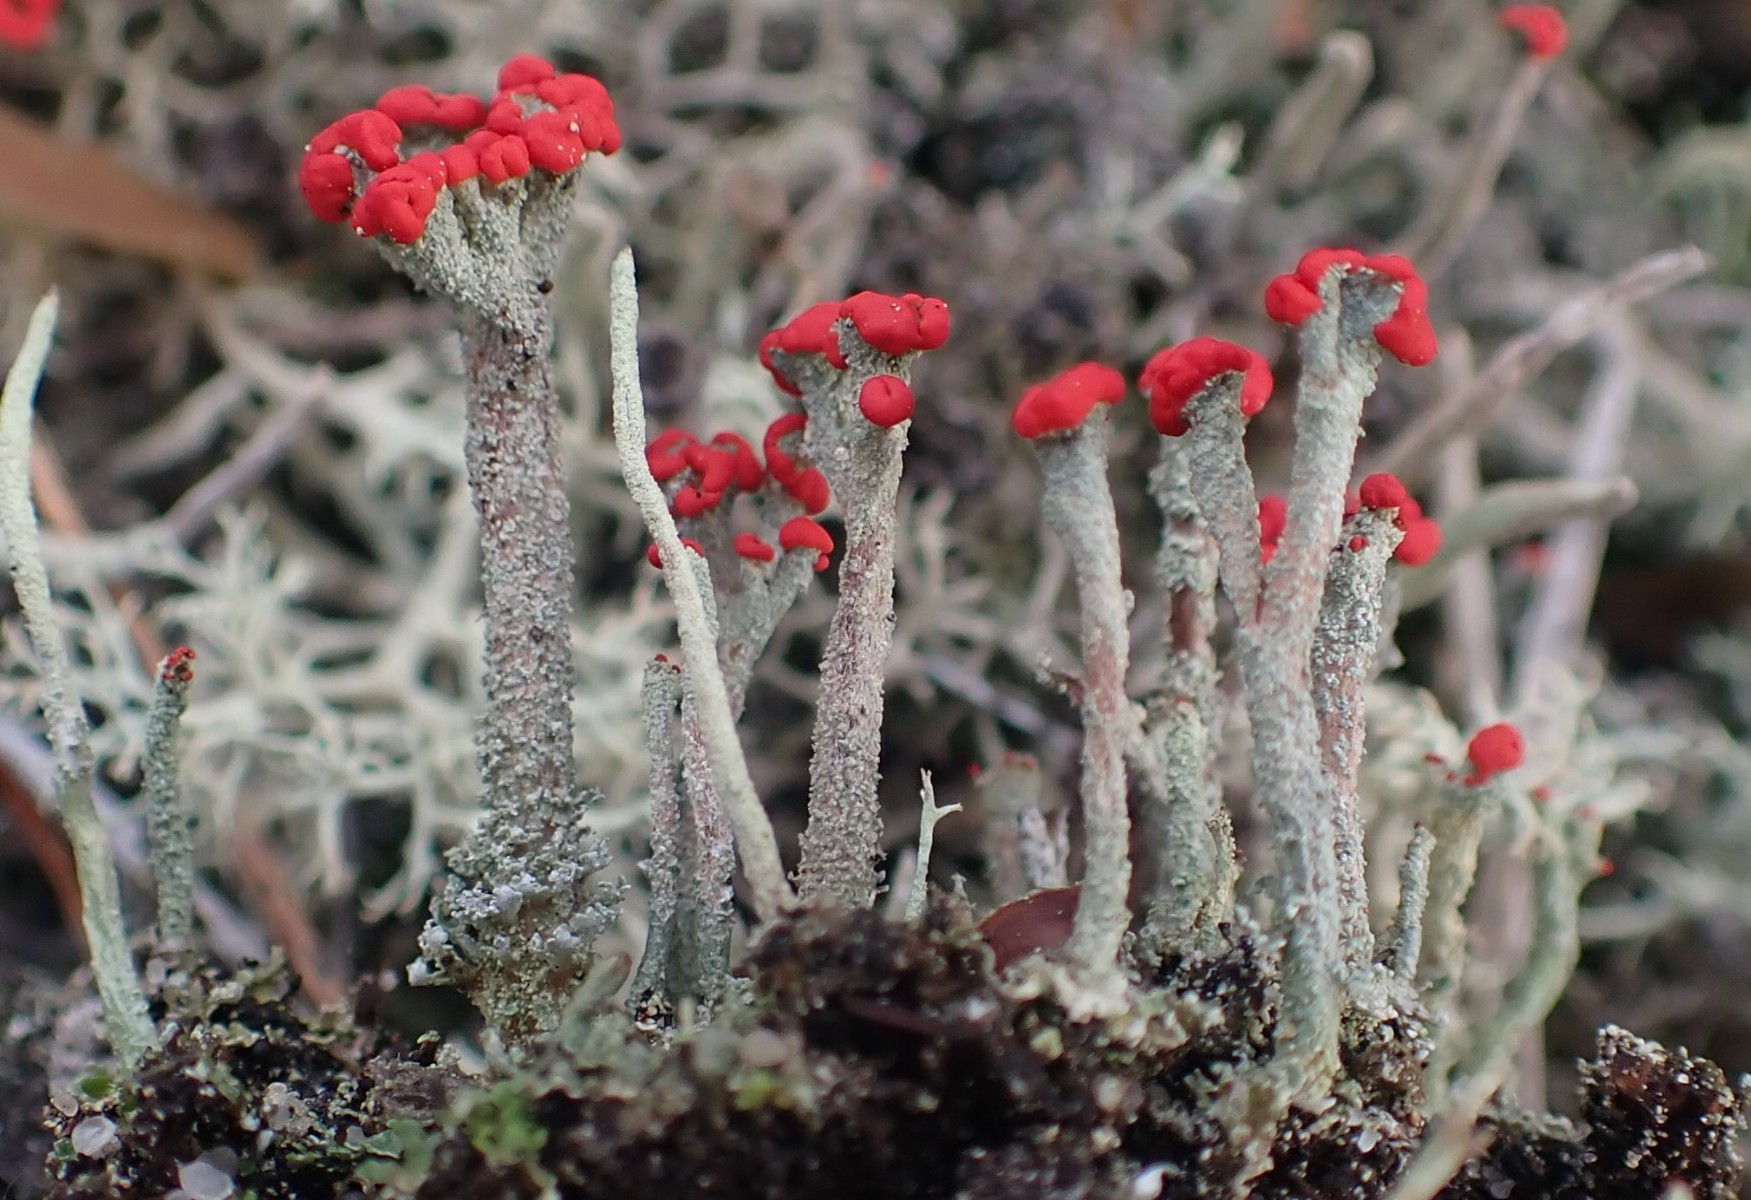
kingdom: Fungi
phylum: Ascomycota
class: Lecanoromycetes
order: Lecanorales
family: Cladoniaceae
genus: Cladonia
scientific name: Cladonia floerkeana
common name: lakrød bægerlav
